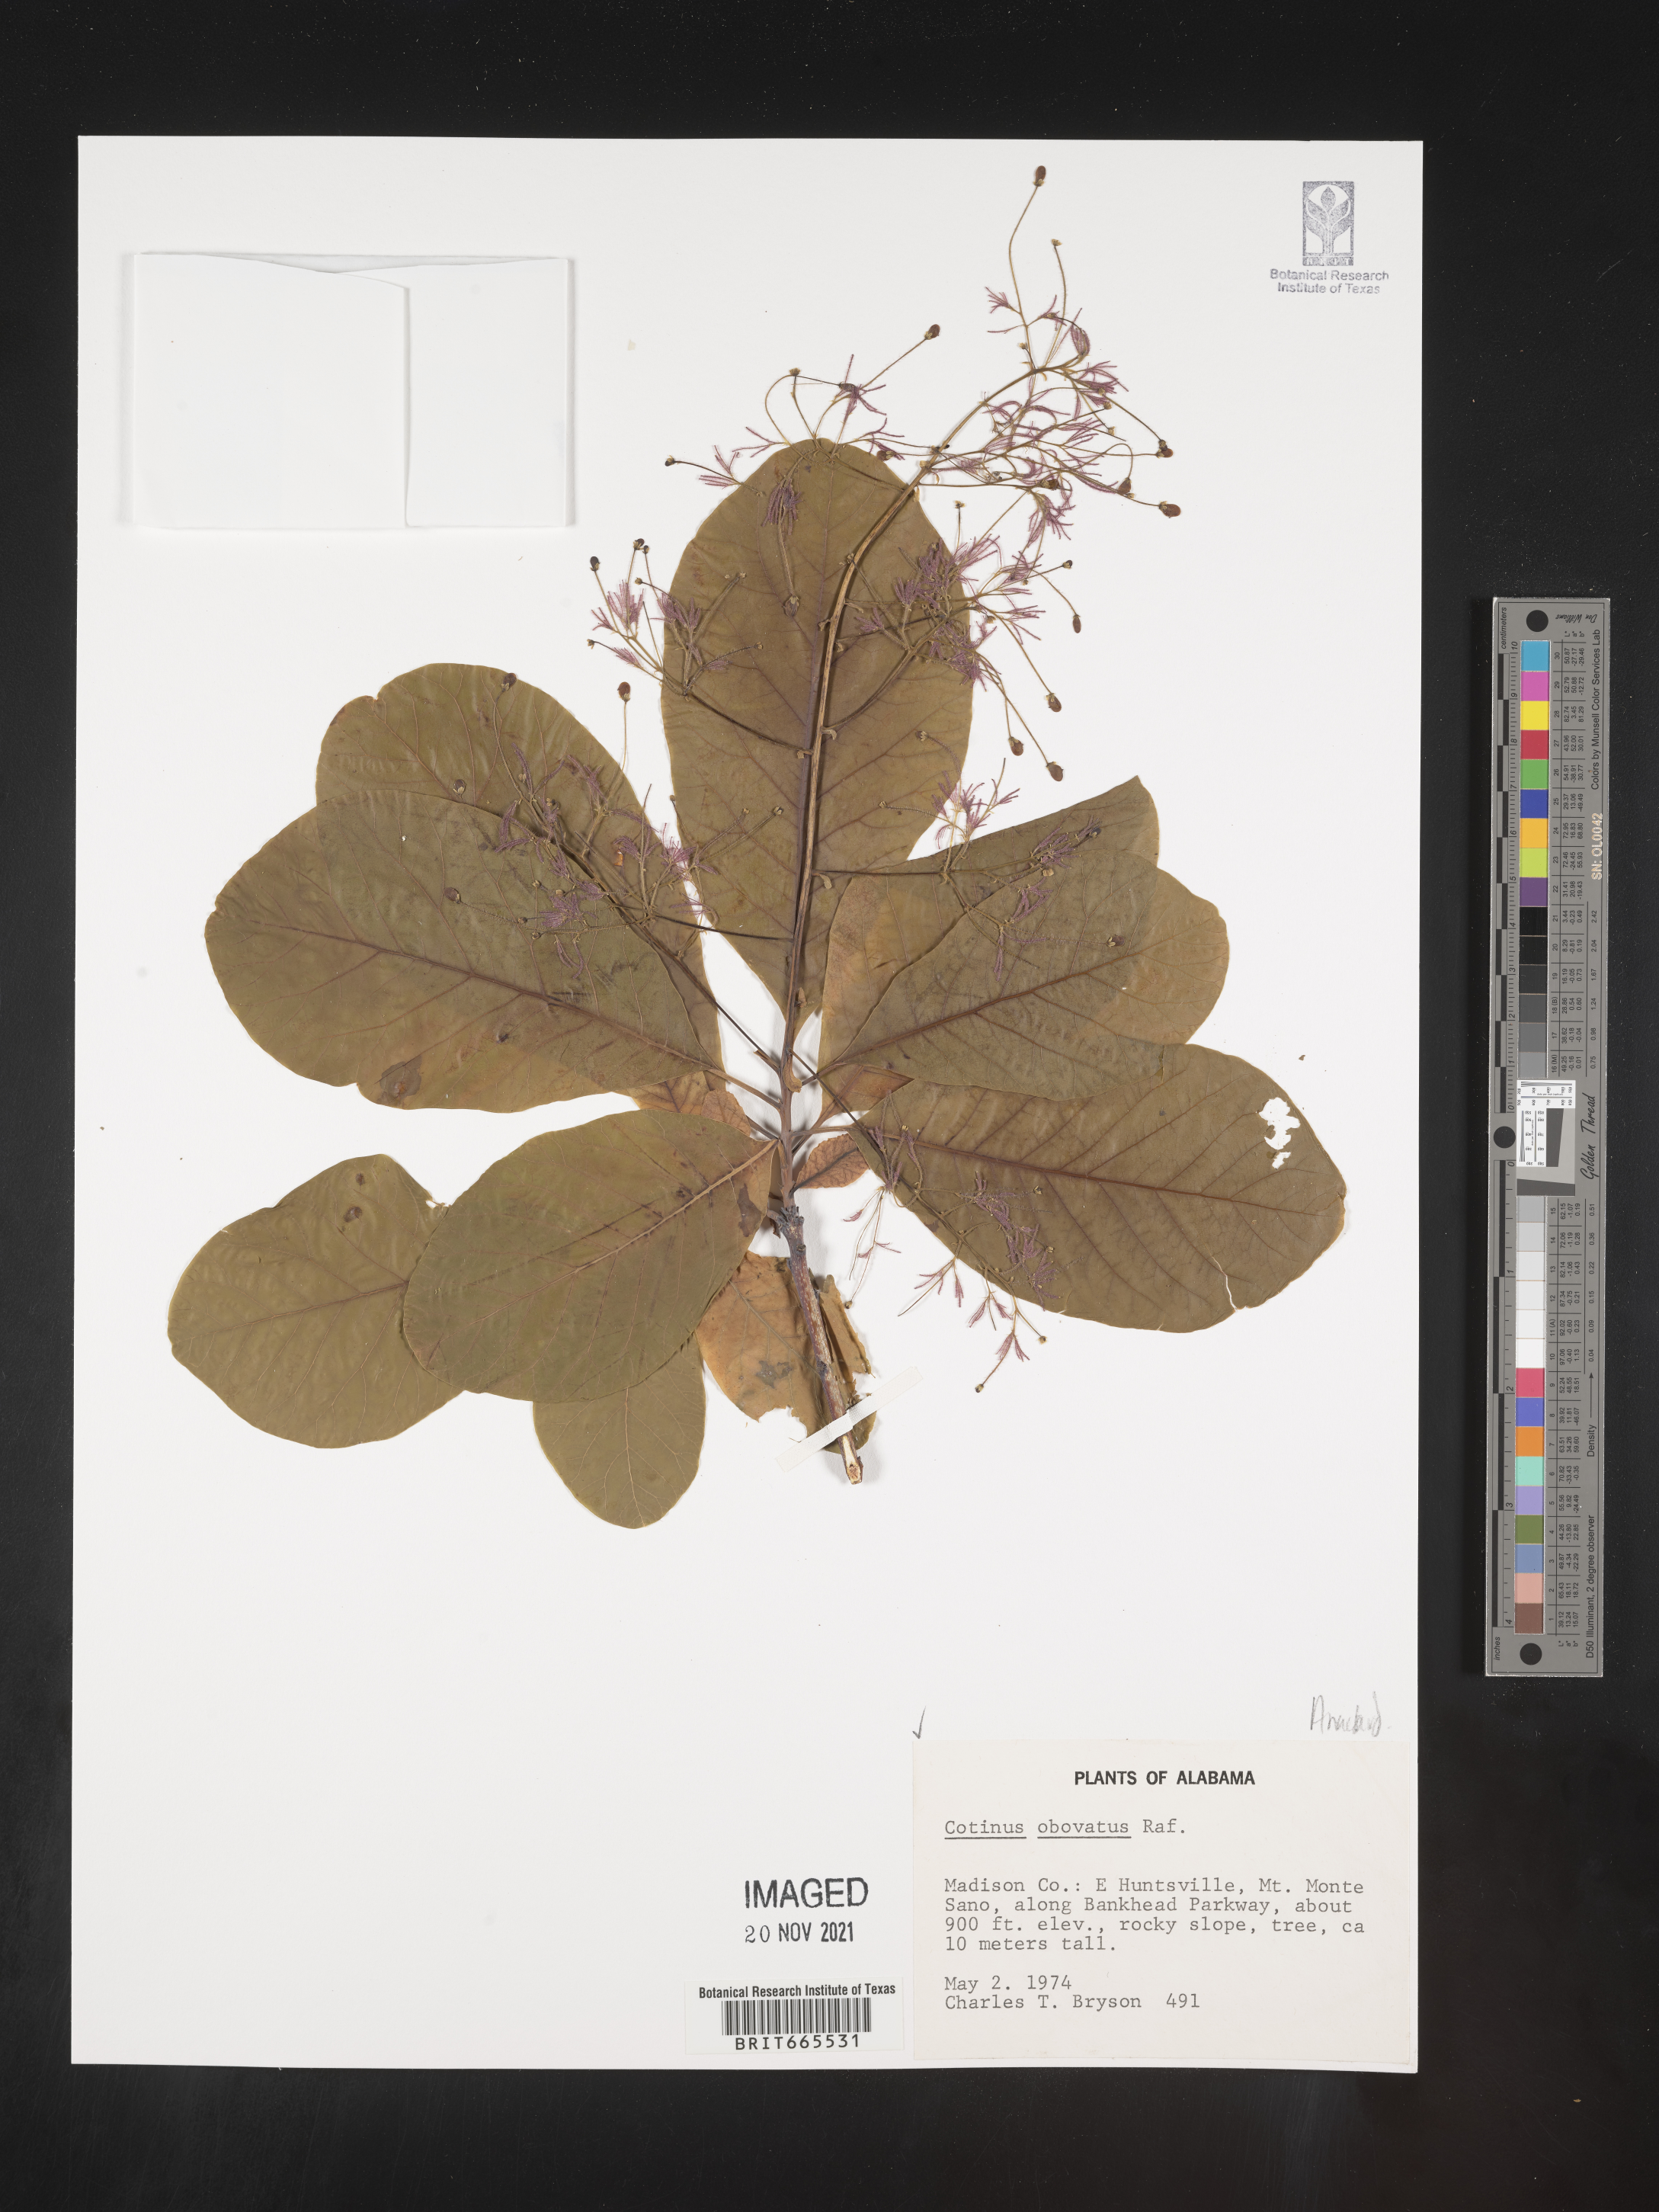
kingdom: Plantae
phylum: Tracheophyta
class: Magnoliopsida
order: Sapindales
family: Anacardiaceae
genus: Cotinus
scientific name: Cotinus obovatus
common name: Chittamwood
